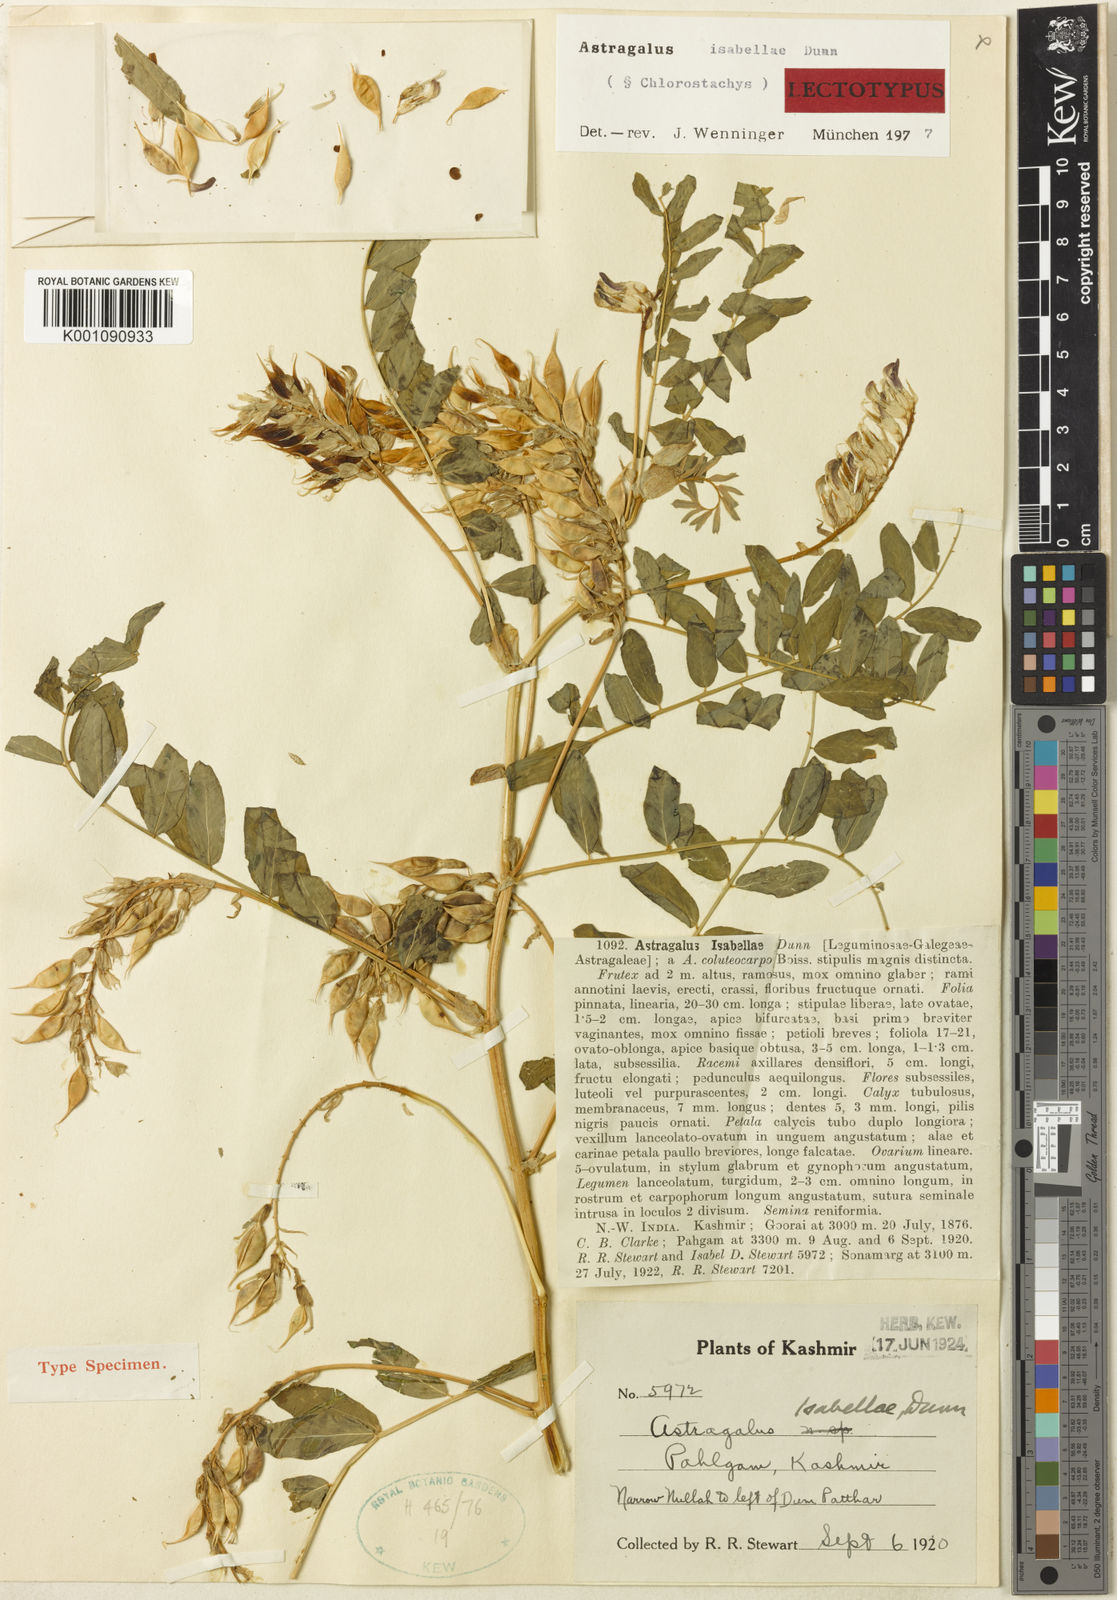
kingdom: Plantae
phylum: Tracheophyta
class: Magnoliopsida
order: Fabales
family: Fabaceae
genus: Astragalus
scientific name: Astragalus
